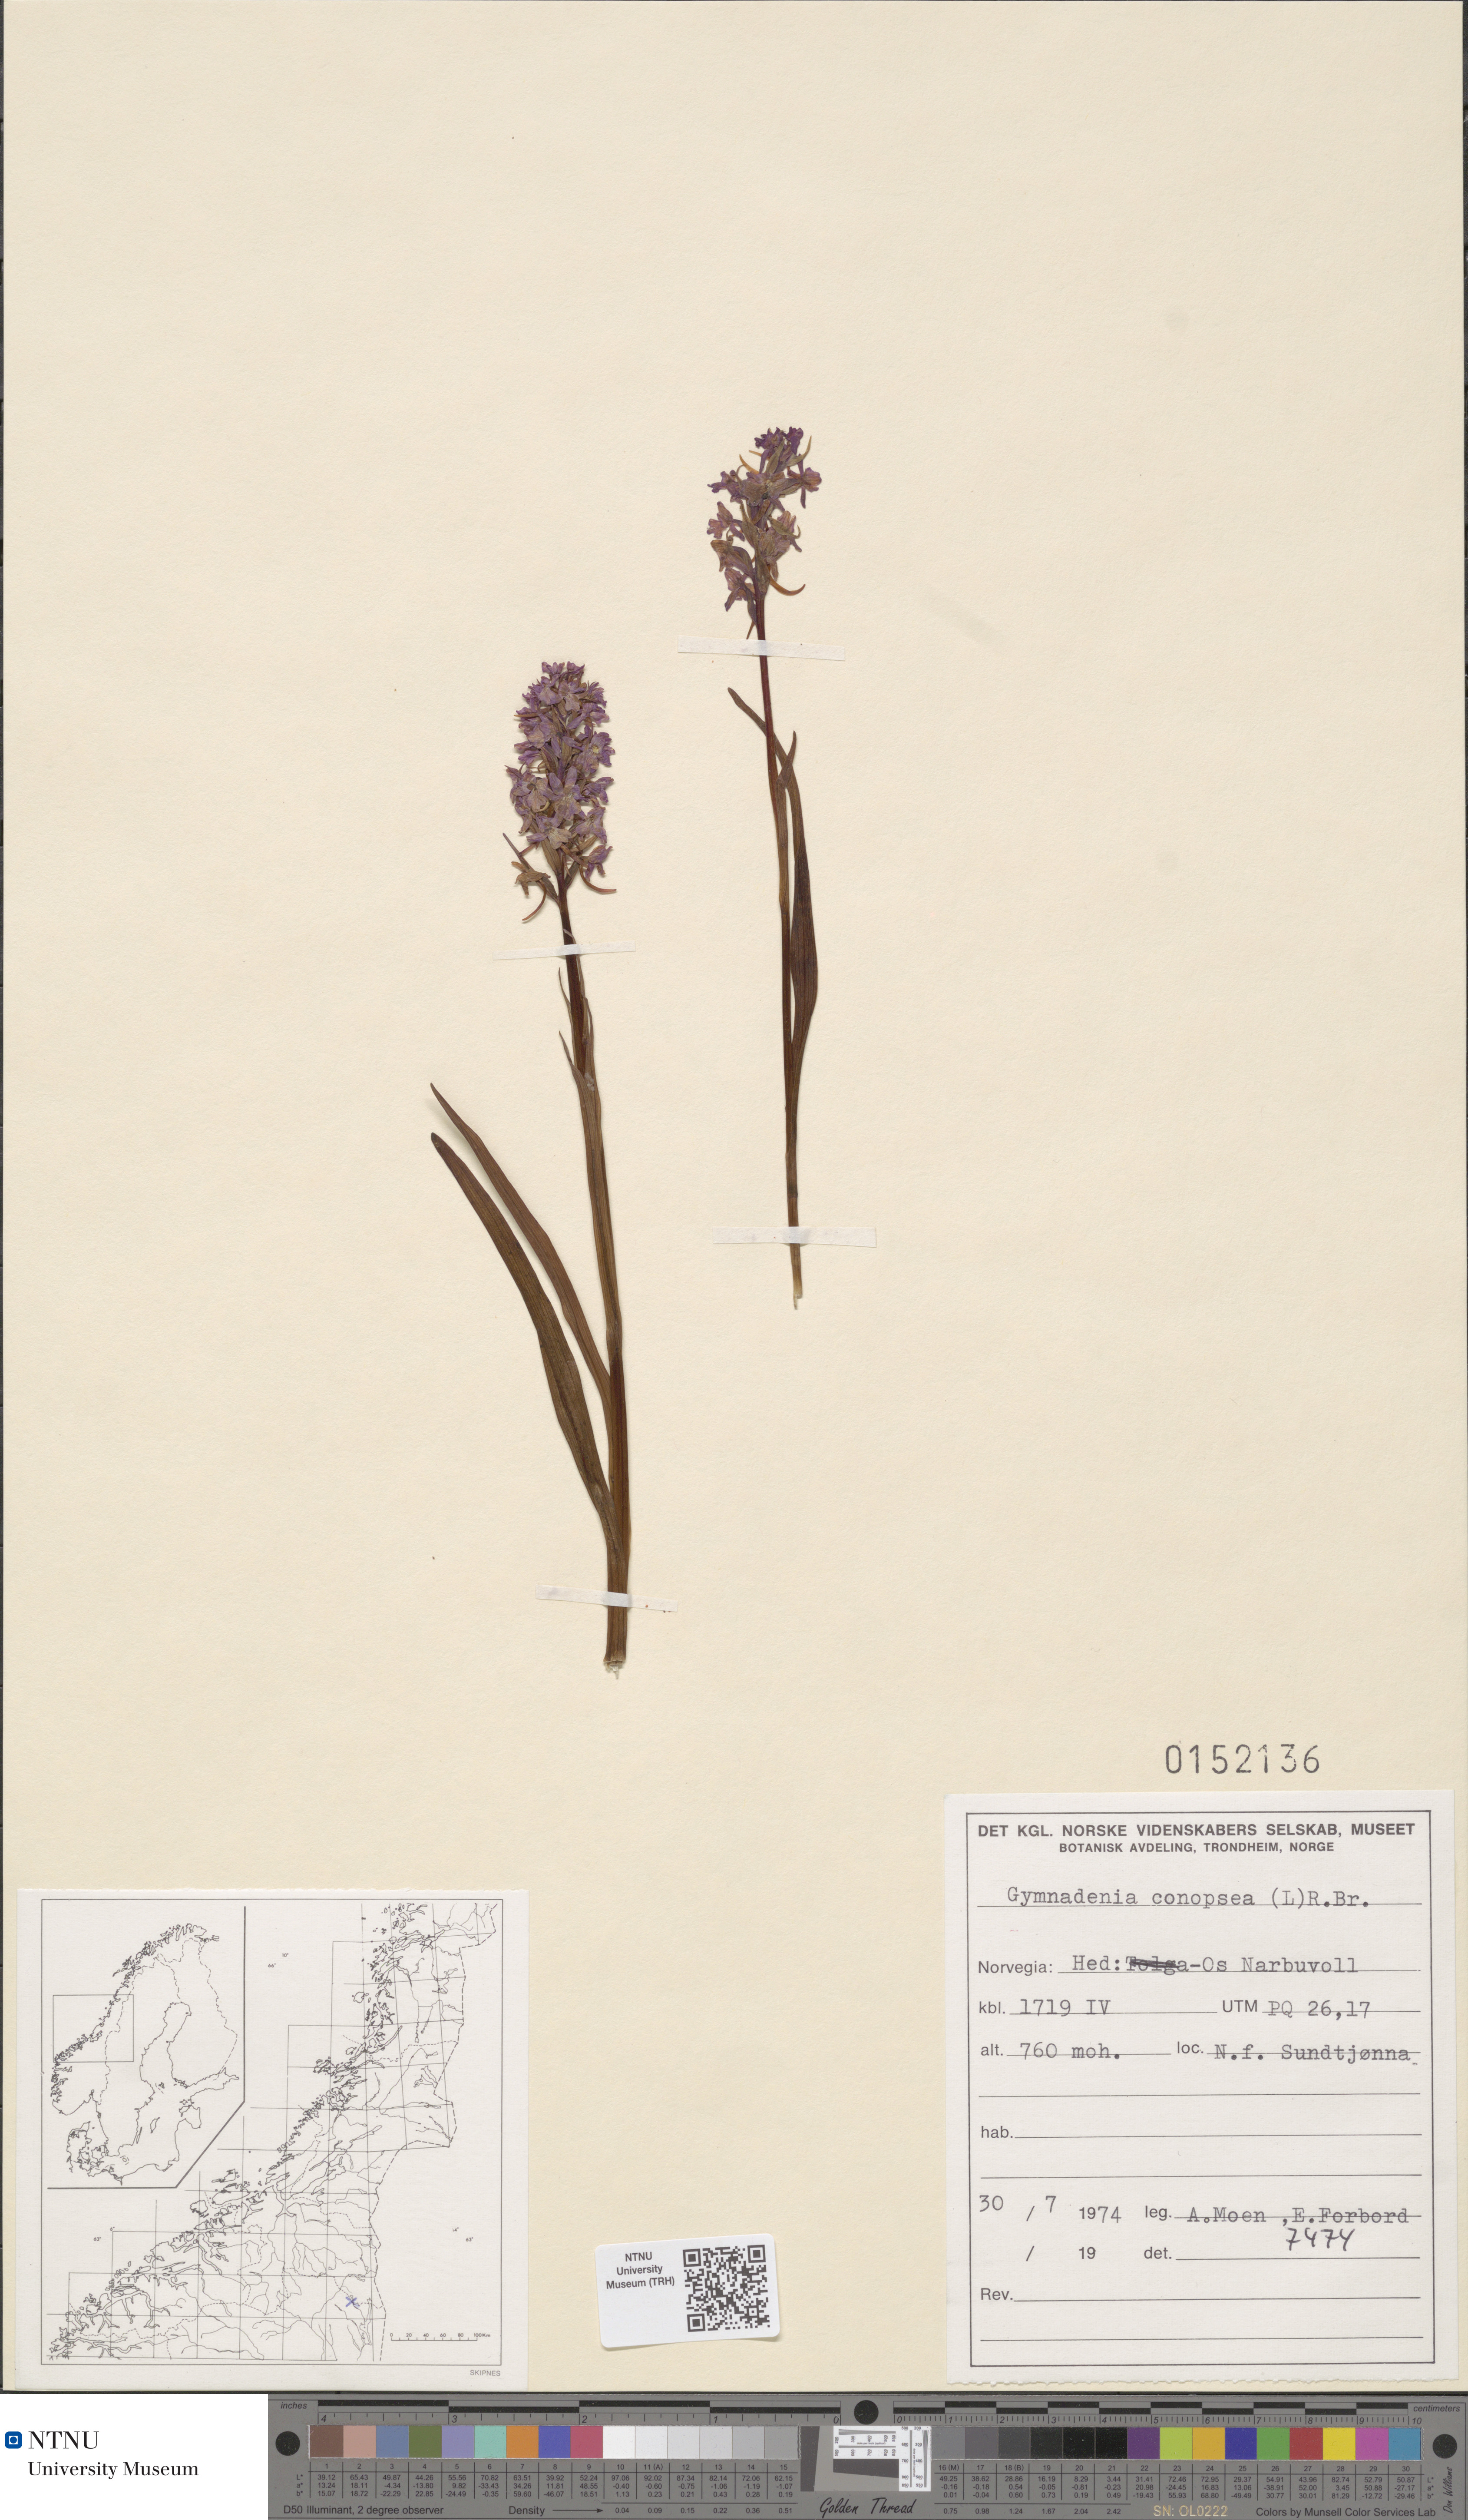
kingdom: Plantae
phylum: Tracheophyta
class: Liliopsida
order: Asparagales
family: Orchidaceae
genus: Gymnadenia
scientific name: Gymnadenia conopsea
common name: Fragrant orchid
